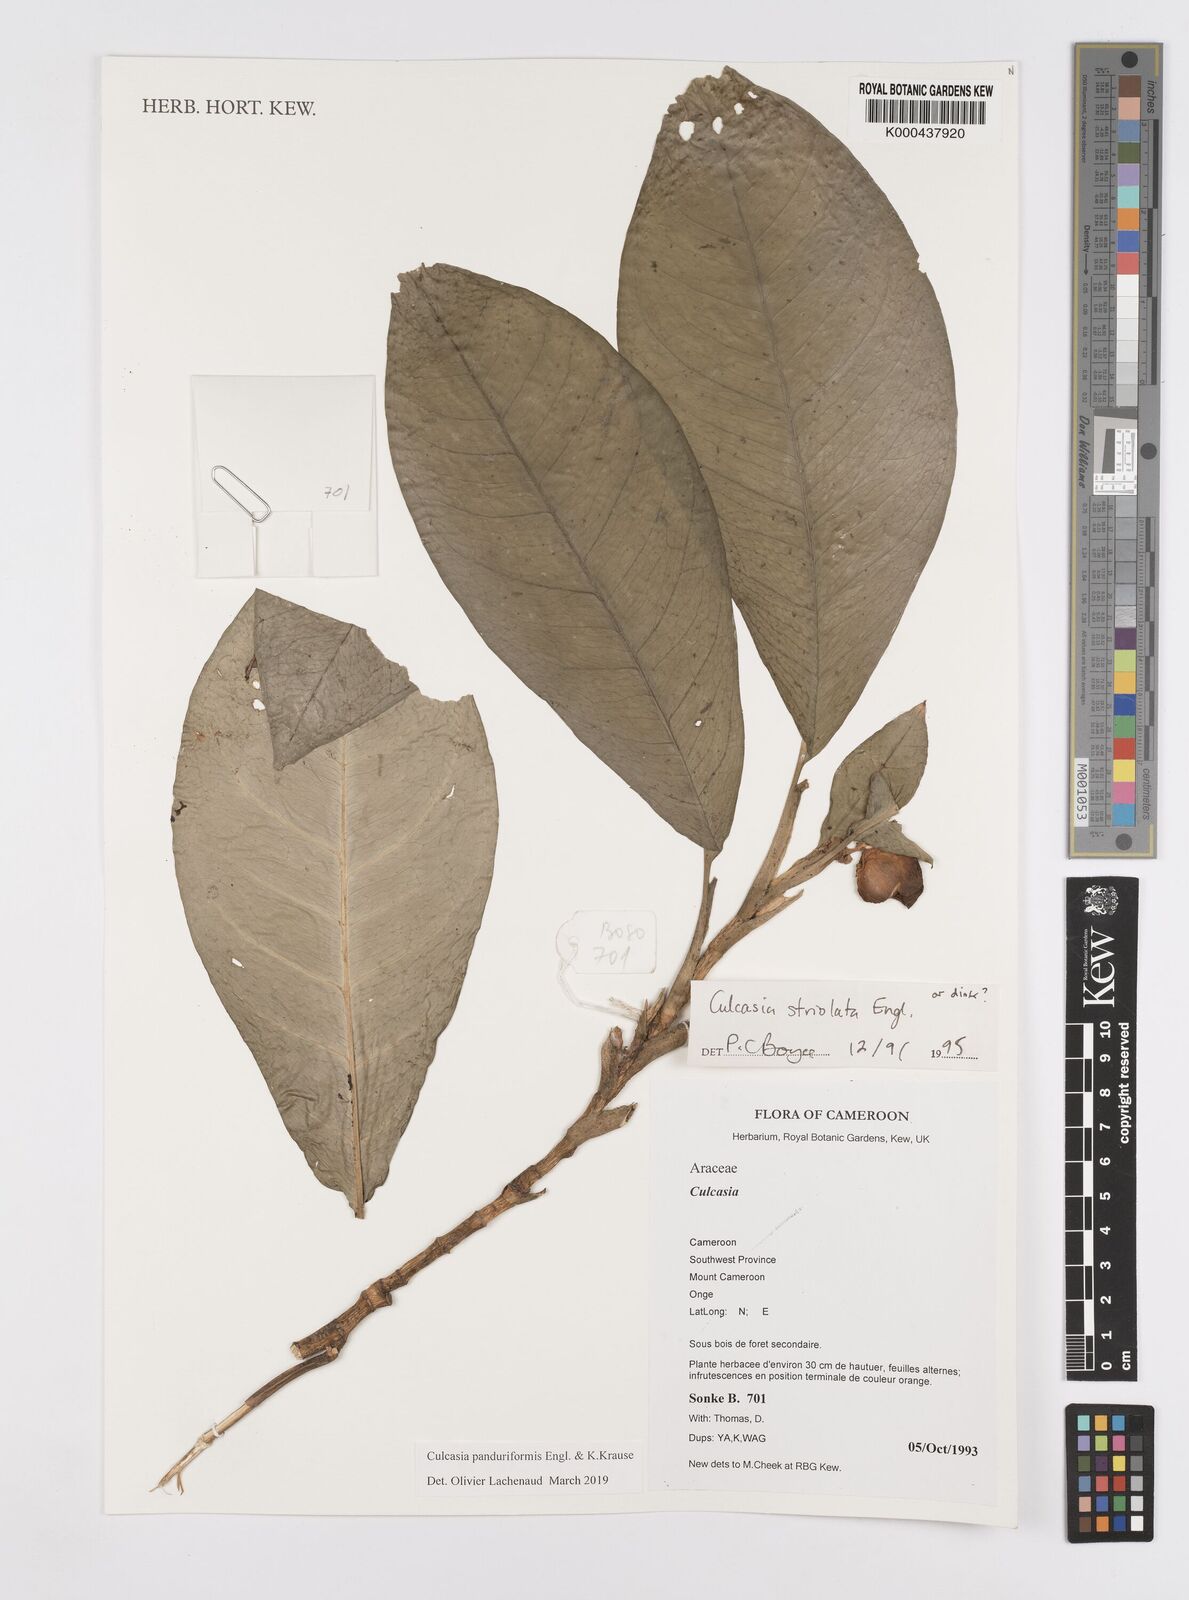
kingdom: Plantae
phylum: Tracheophyta
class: Liliopsida
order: Alismatales
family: Araceae
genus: Culcasia
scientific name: Culcasia panduriformis
